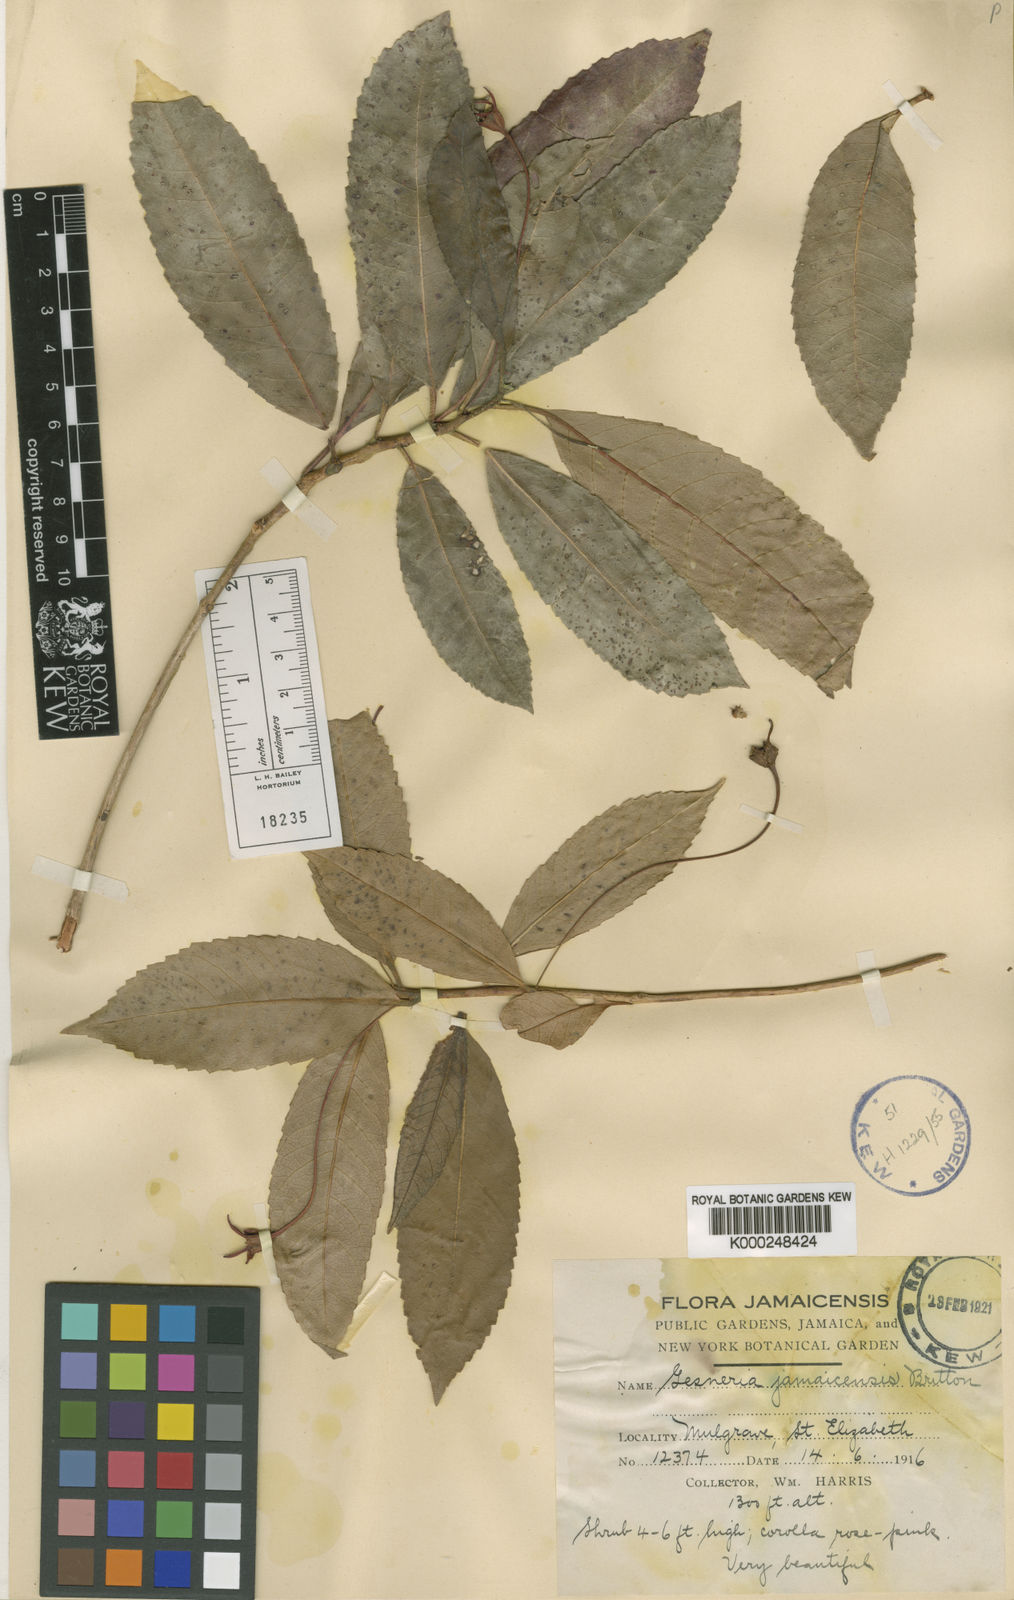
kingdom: Plantae
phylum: Tracheophyta
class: Magnoliopsida
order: Lamiales
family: Gesneriaceae
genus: Gesneria
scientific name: Gesneria jamaicensis
